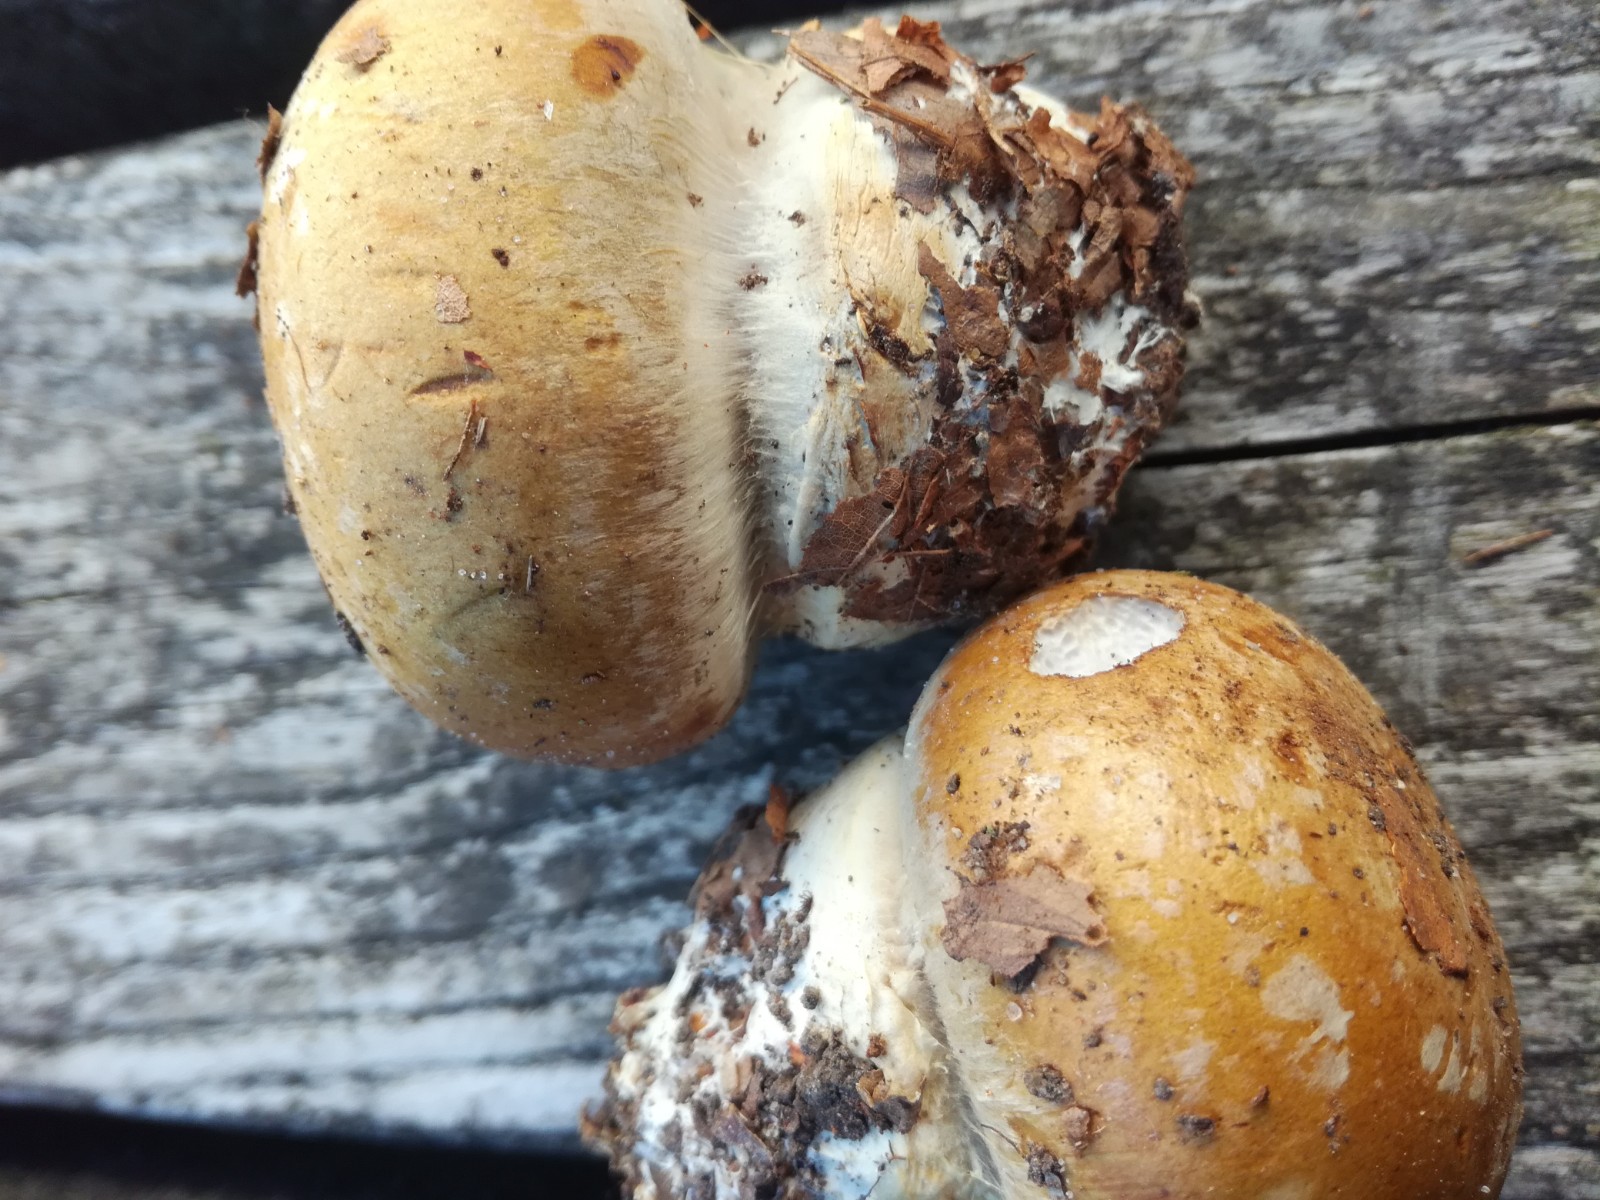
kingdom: Fungi
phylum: Basidiomycota
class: Agaricomycetes
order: Agaricales
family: Cortinariaceae
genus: Cortinarius
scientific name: Cortinarius anserinus
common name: bøge-slørhat
